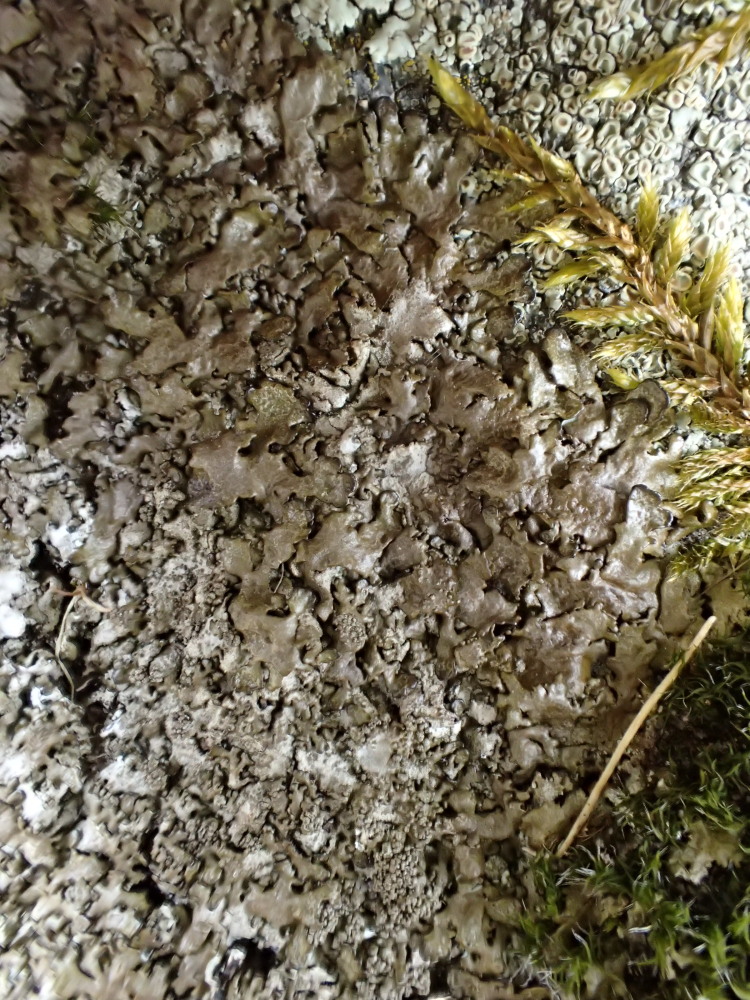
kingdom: Fungi
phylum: Ascomycota
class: Lecanoromycetes
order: Lecanorales
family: Parmeliaceae
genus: Xanthoparmelia
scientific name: Xanthoparmelia loxodes
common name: knudret skållav
